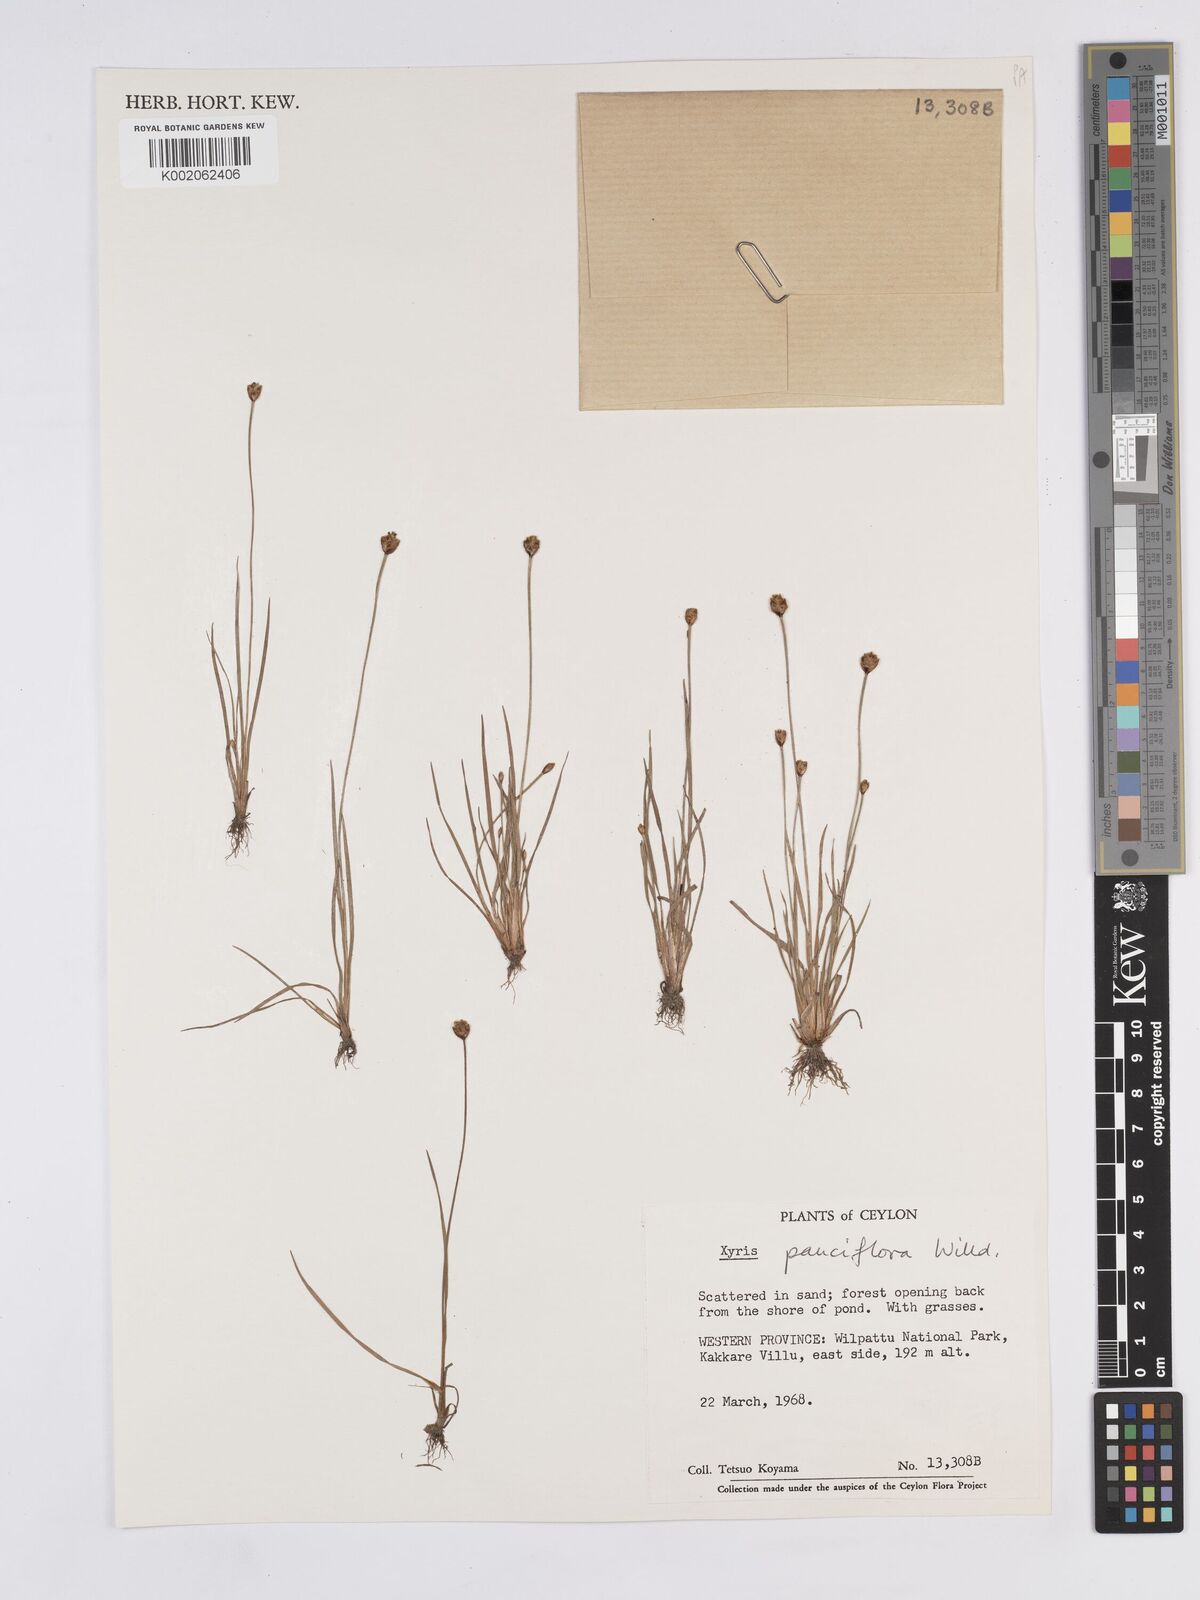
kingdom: Plantae
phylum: Tracheophyta
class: Liliopsida
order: Poales
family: Xyridaceae
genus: Xyris
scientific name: Xyris pauciflora
